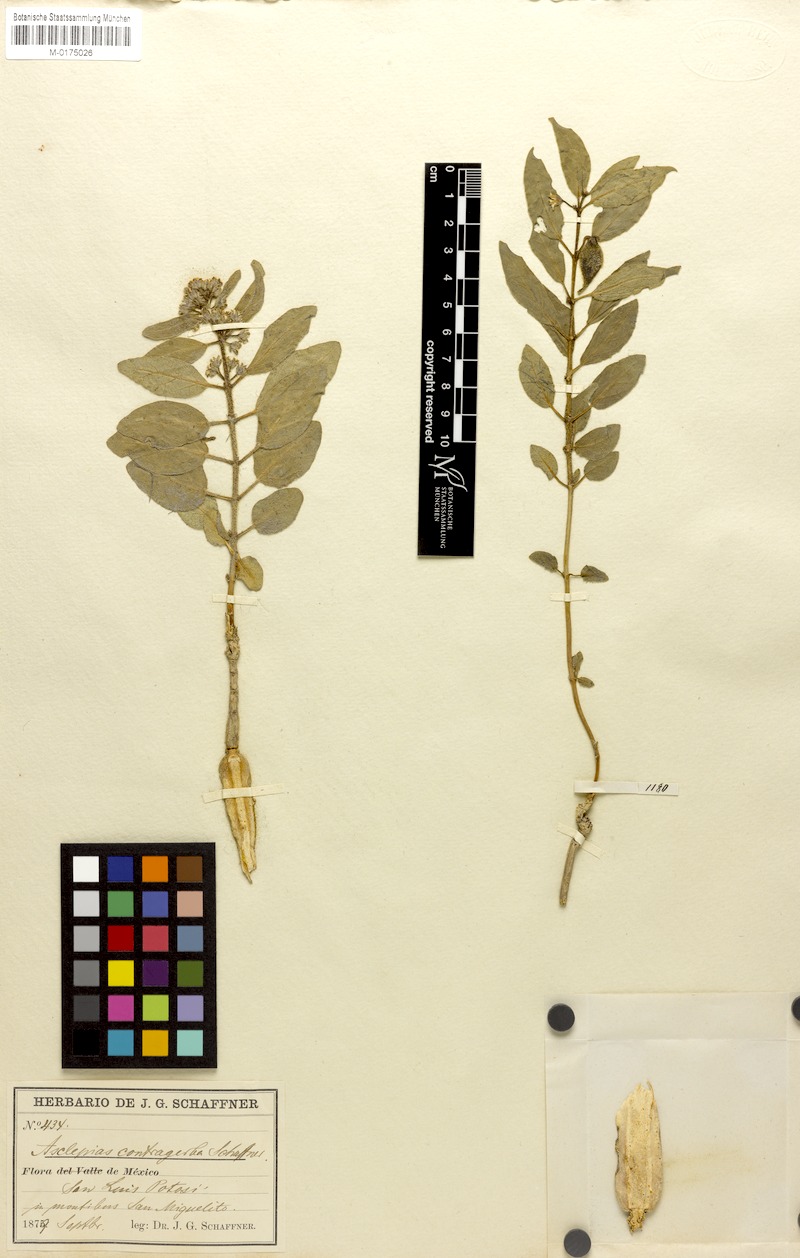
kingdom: Plantae
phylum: Tracheophyta
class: Magnoliopsida
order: Gentianales
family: Apocynaceae
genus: Asclepias
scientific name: Asclepias contrayerba
